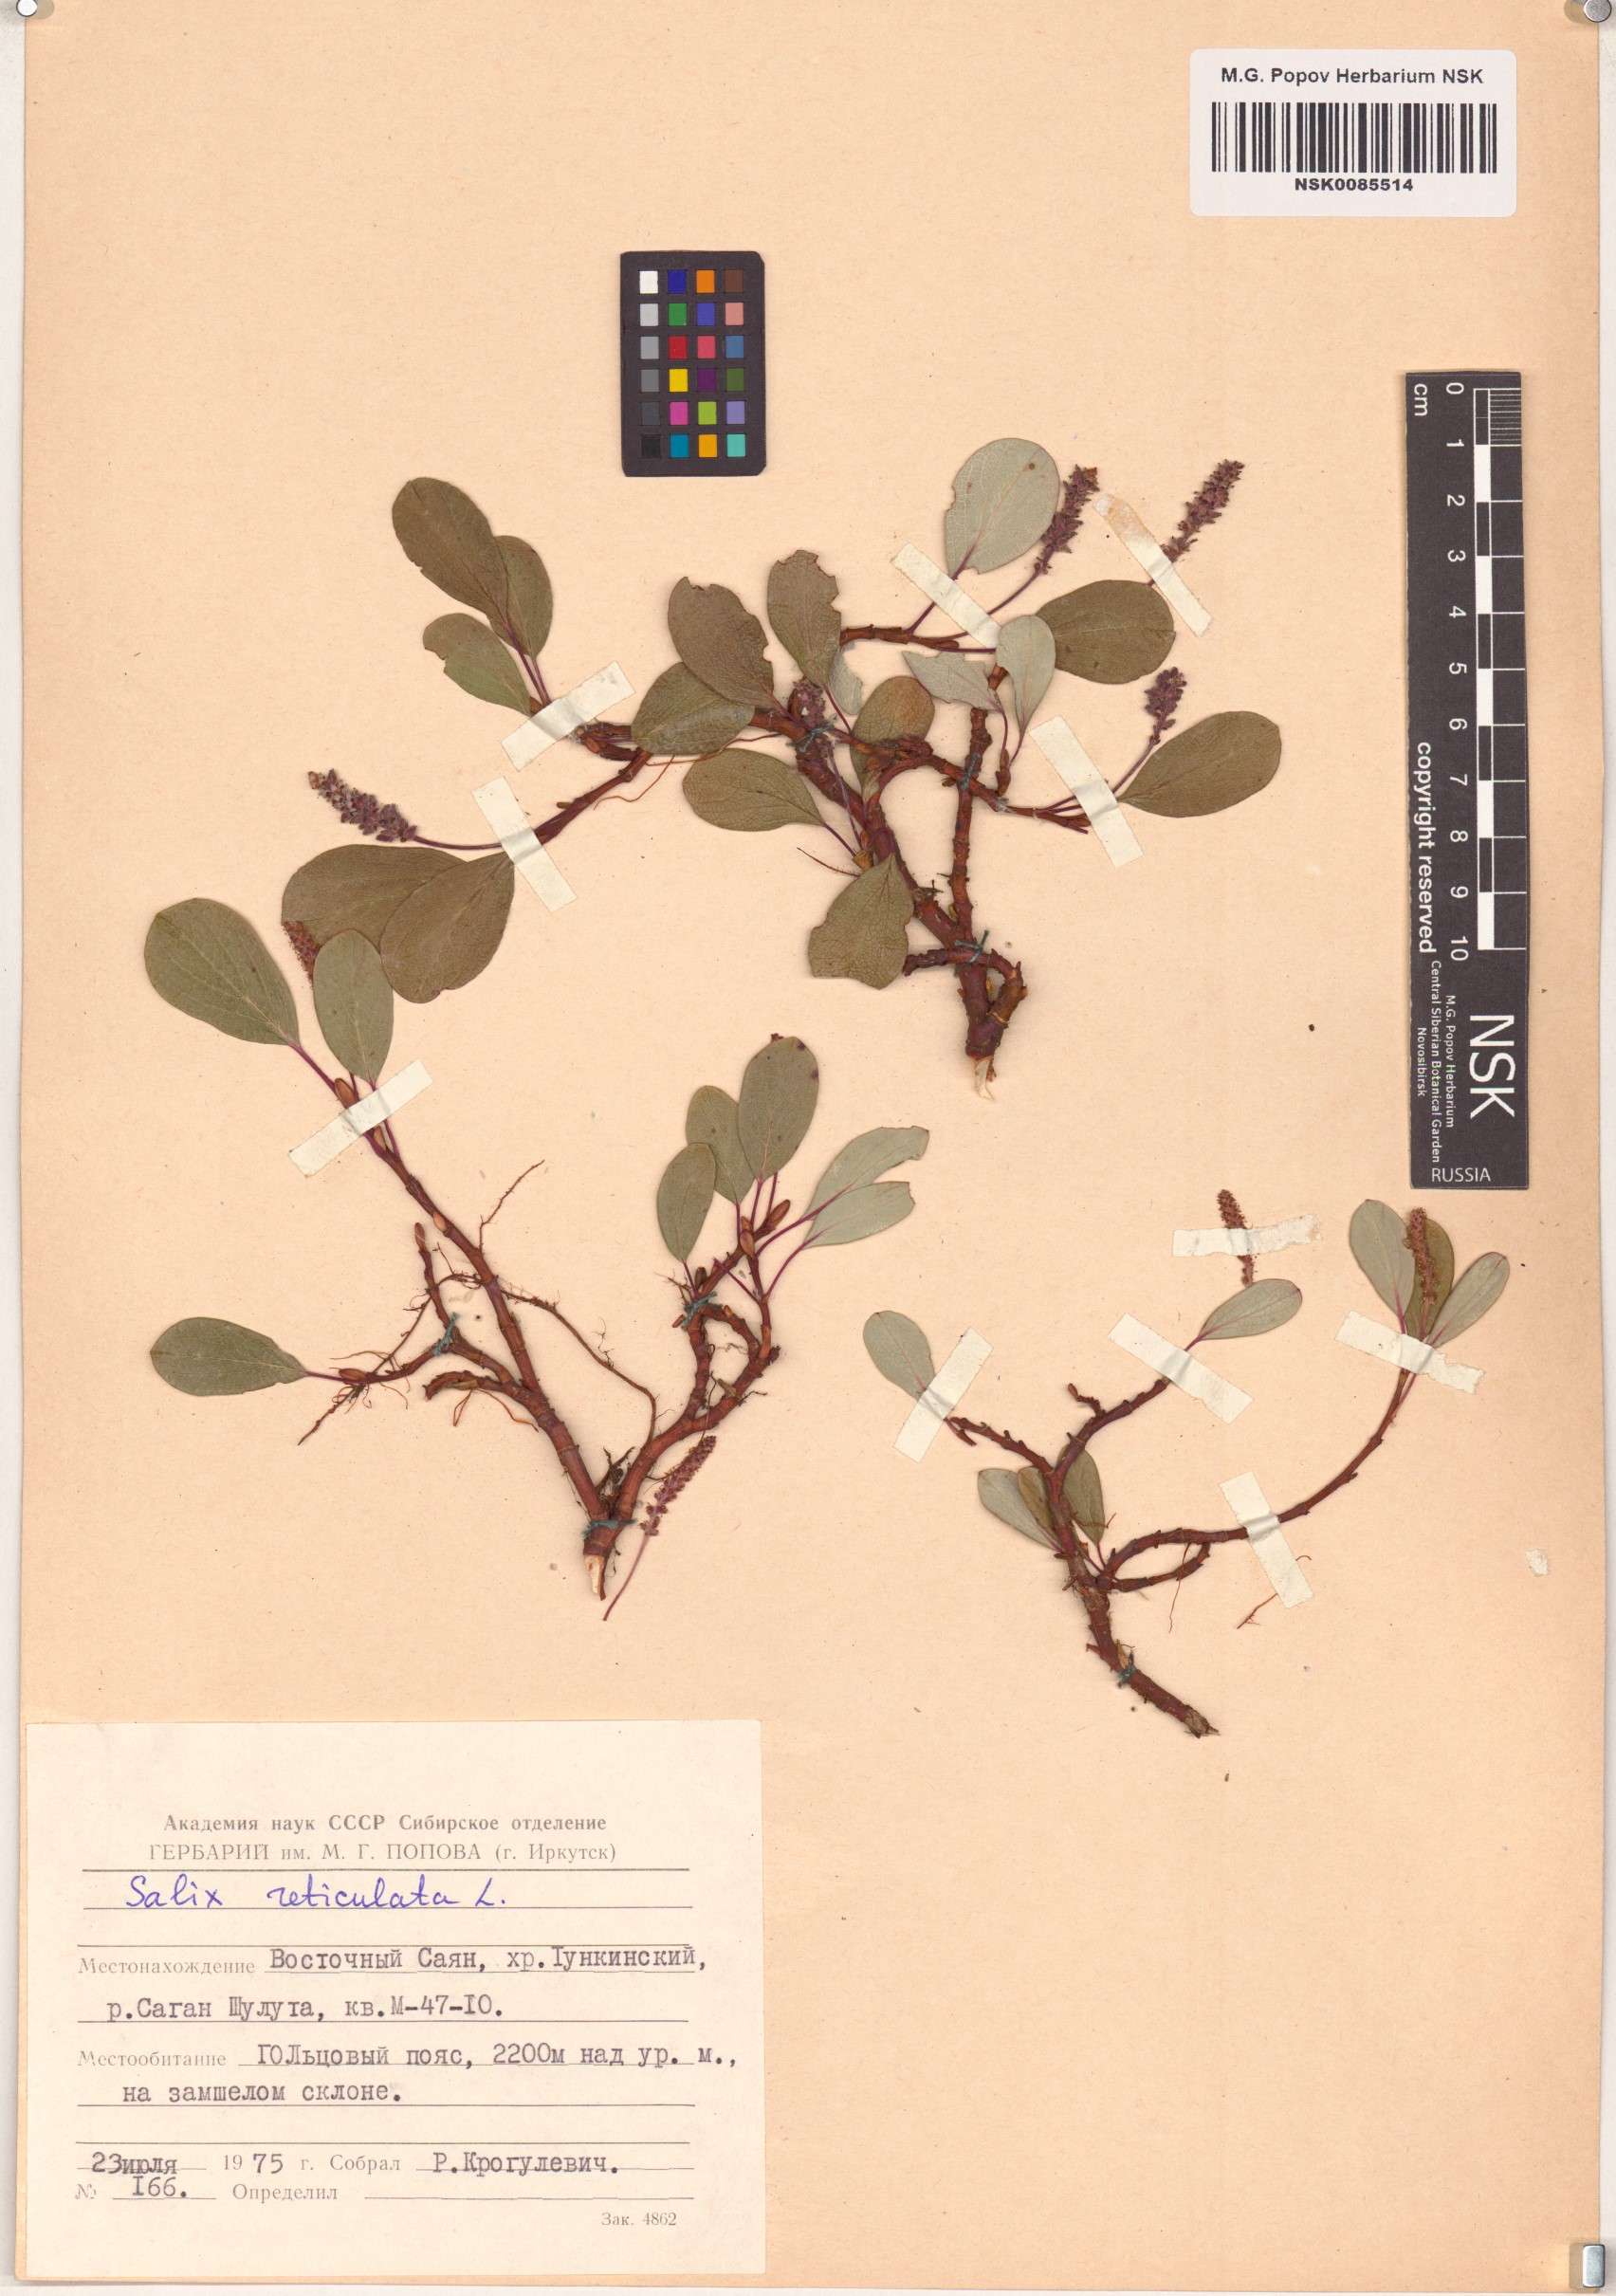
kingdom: Plantae
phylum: Tracheophyta
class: Magnoliopsida
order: Malpighiales
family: Salicaceae
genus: Salix
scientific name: Salix reticulata
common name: Net-leaved willow
